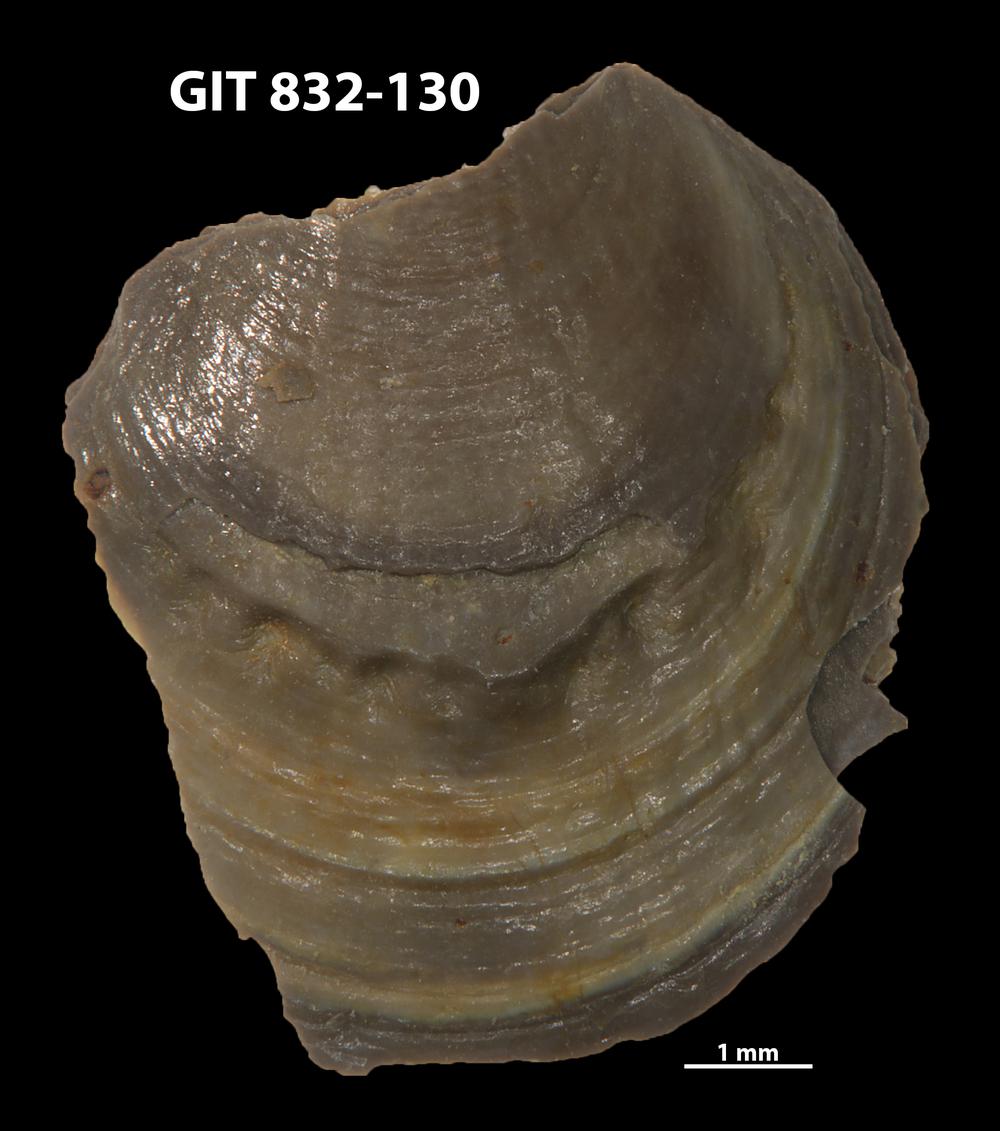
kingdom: Animalia
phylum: Brachiopoda
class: Lingulata
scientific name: Lingulata
